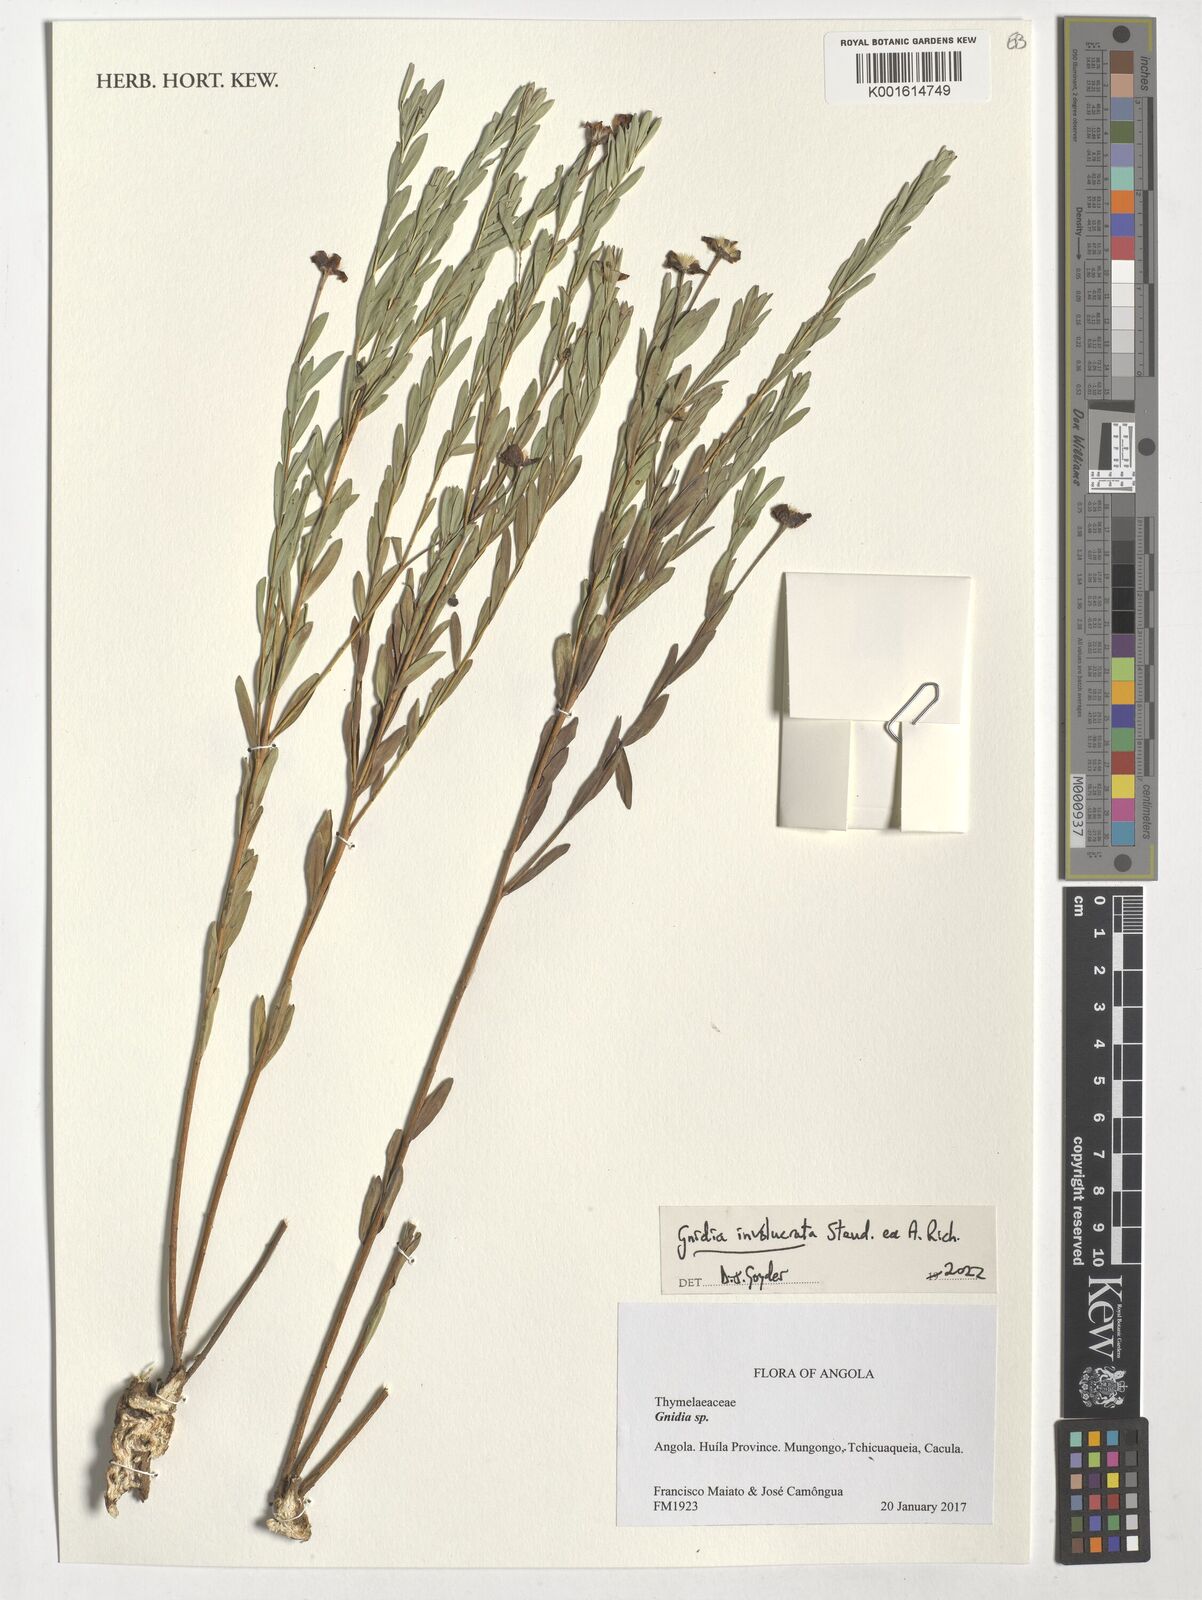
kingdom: Plantae
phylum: Tracheophyta
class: Magnoliopsida
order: Malvales
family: Thymelaeaceae
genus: Gnidia
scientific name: Gnidia involucrata
